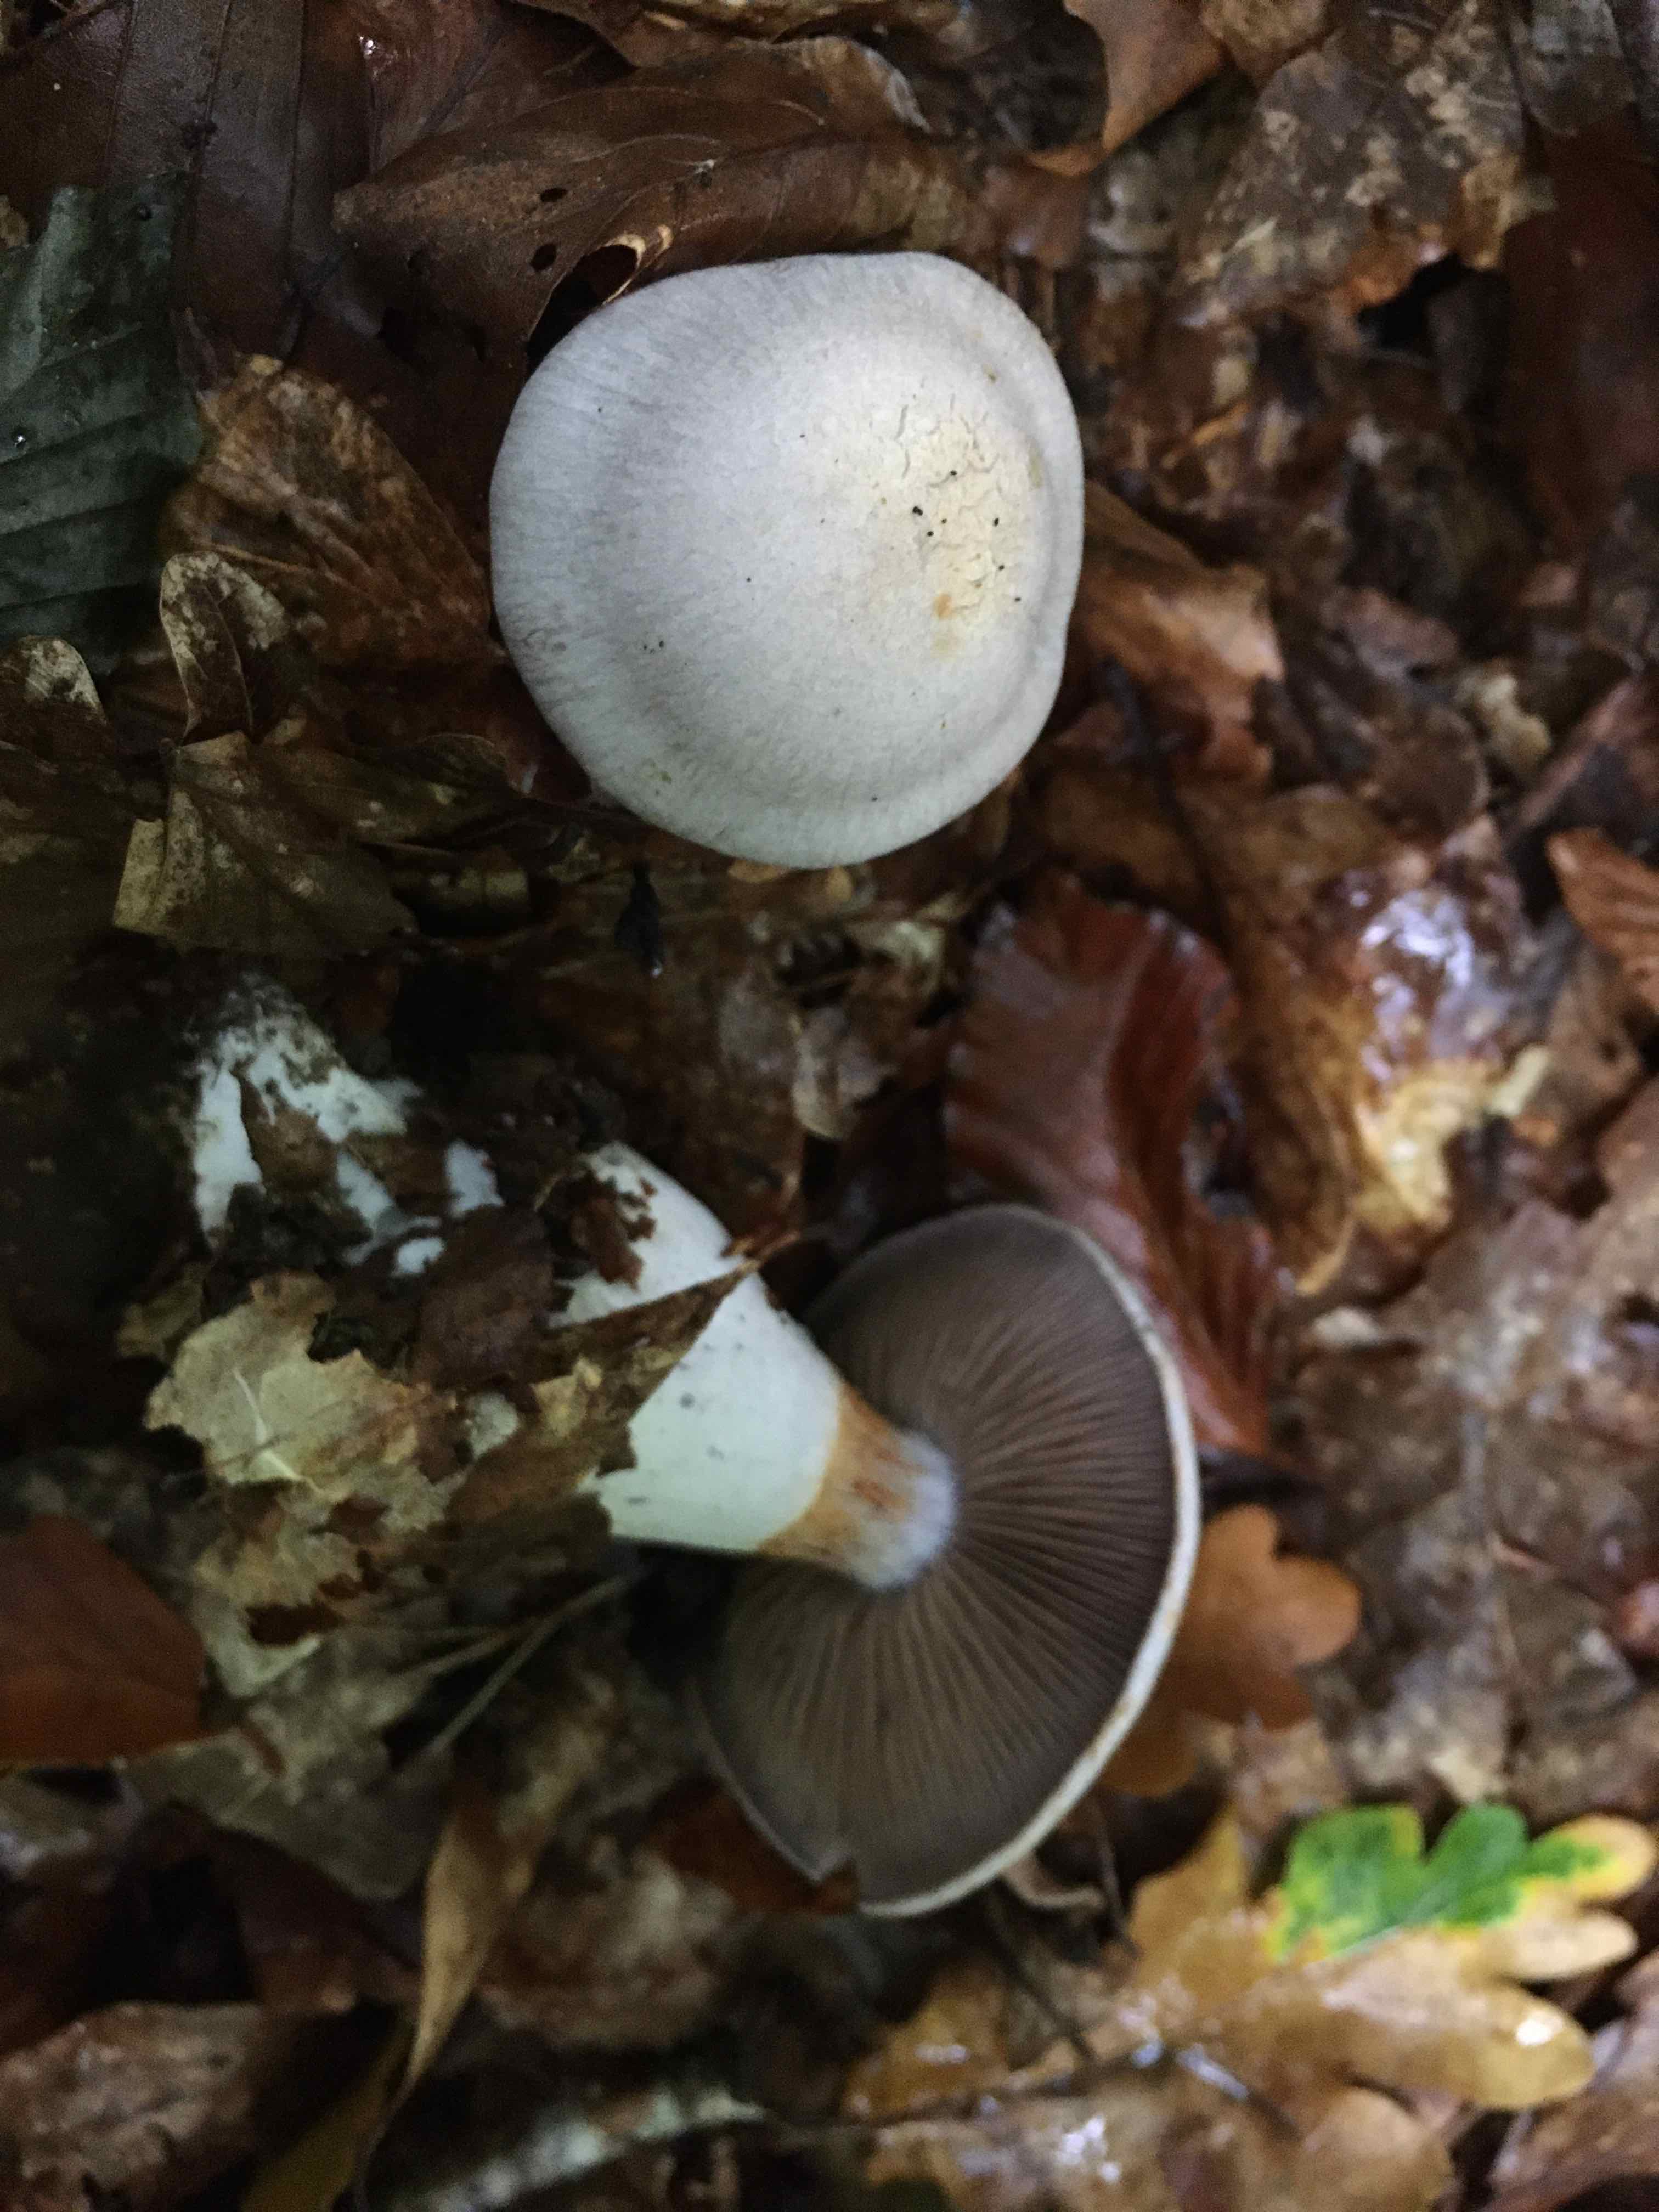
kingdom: Fungi
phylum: Basidiomycota
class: Agaricomycetes
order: Agaricales
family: Cortinariaceae
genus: Cortinarius
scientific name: Cortinarius
